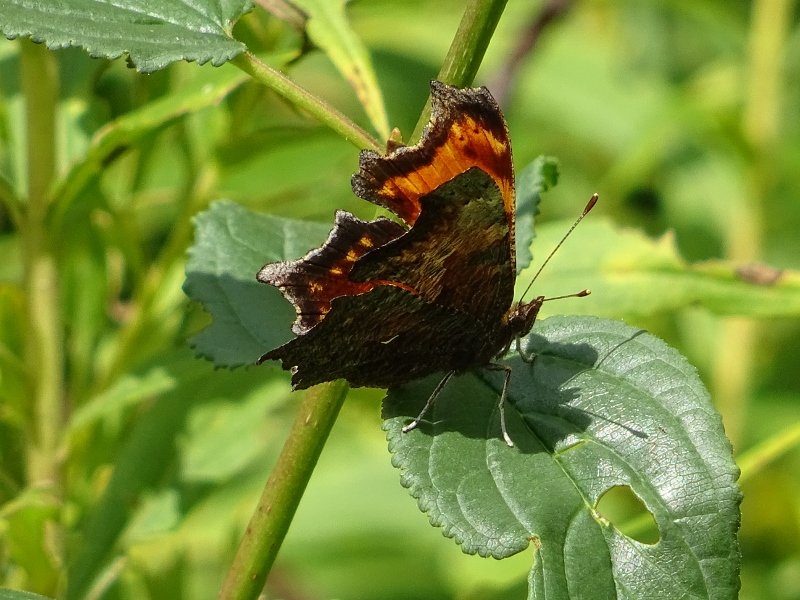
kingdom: Animalia
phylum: Arthropoda
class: Insecta
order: Lepidoptera
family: Nymphalidae
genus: Polygonia
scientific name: Polygonia progne
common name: Gray Comma
